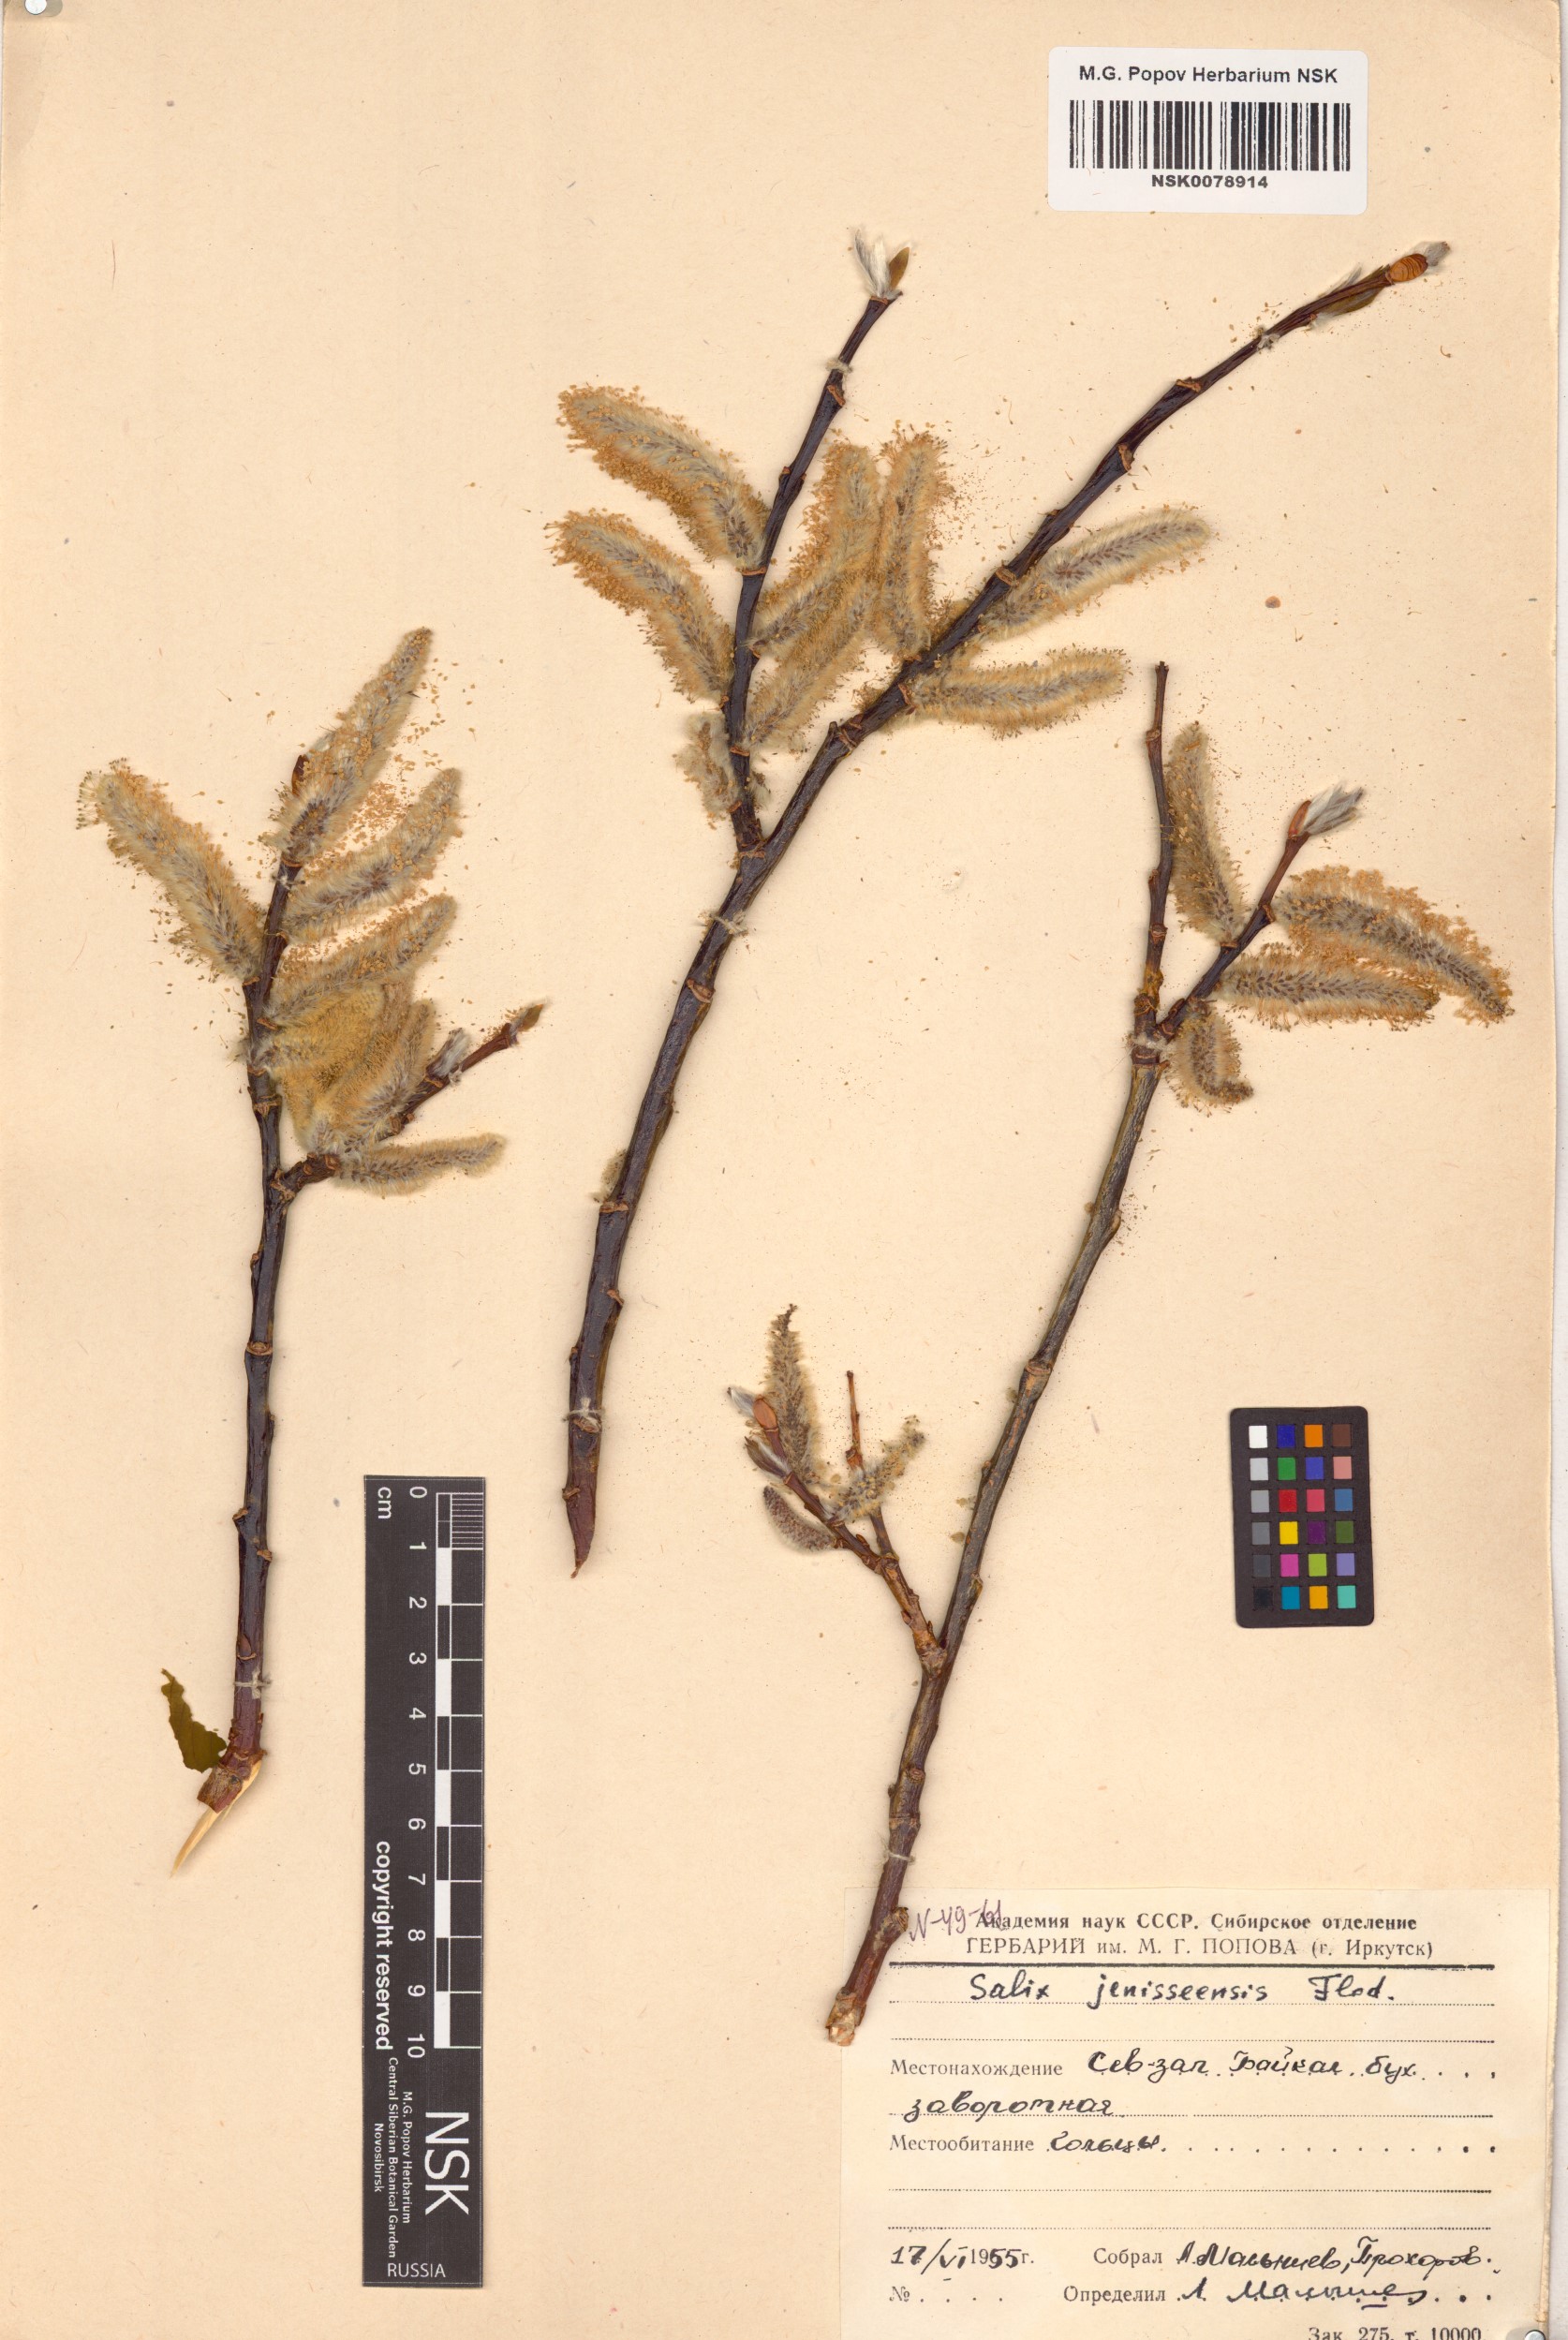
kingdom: Plantae
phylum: Tracheophyta
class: Magnoliopsida
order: Malpighiales
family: Salicaceae
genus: Salix
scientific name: Salix jenisseensis
